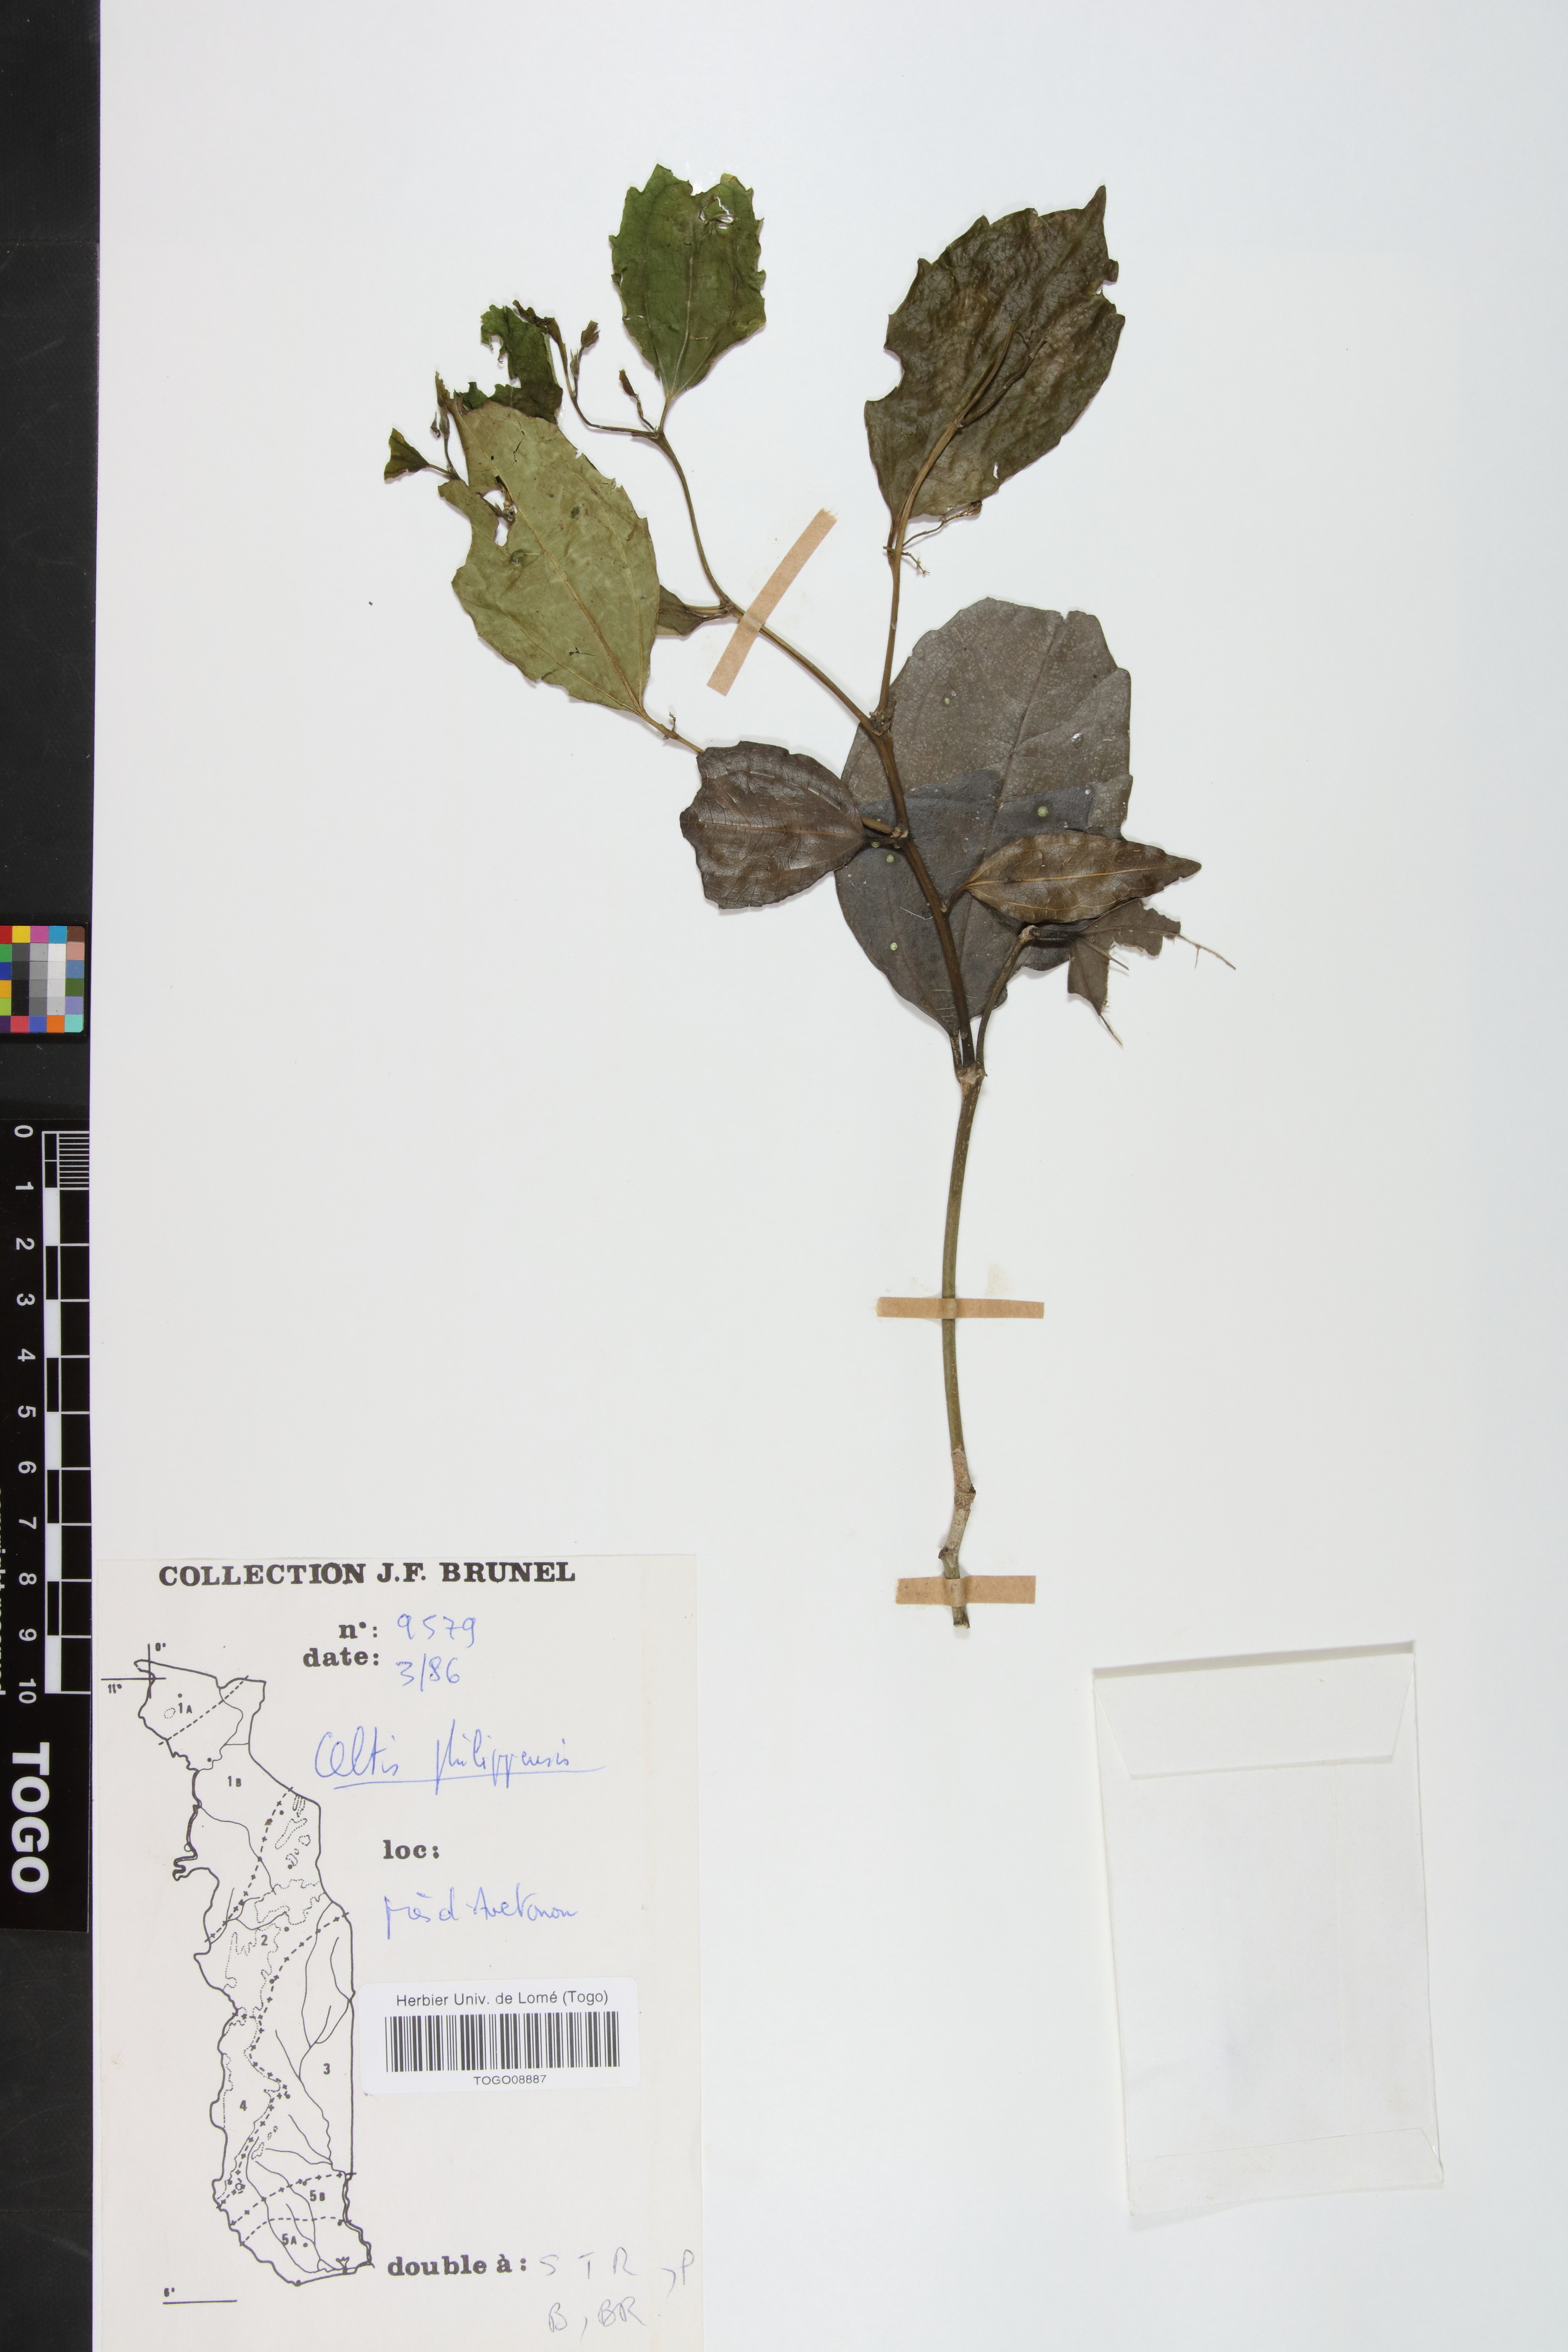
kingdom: Plantae
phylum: Tracheophyta
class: Magnoliopsida
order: Rosales
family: Cannabaceae
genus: Celtis
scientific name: Celtis philippensis
